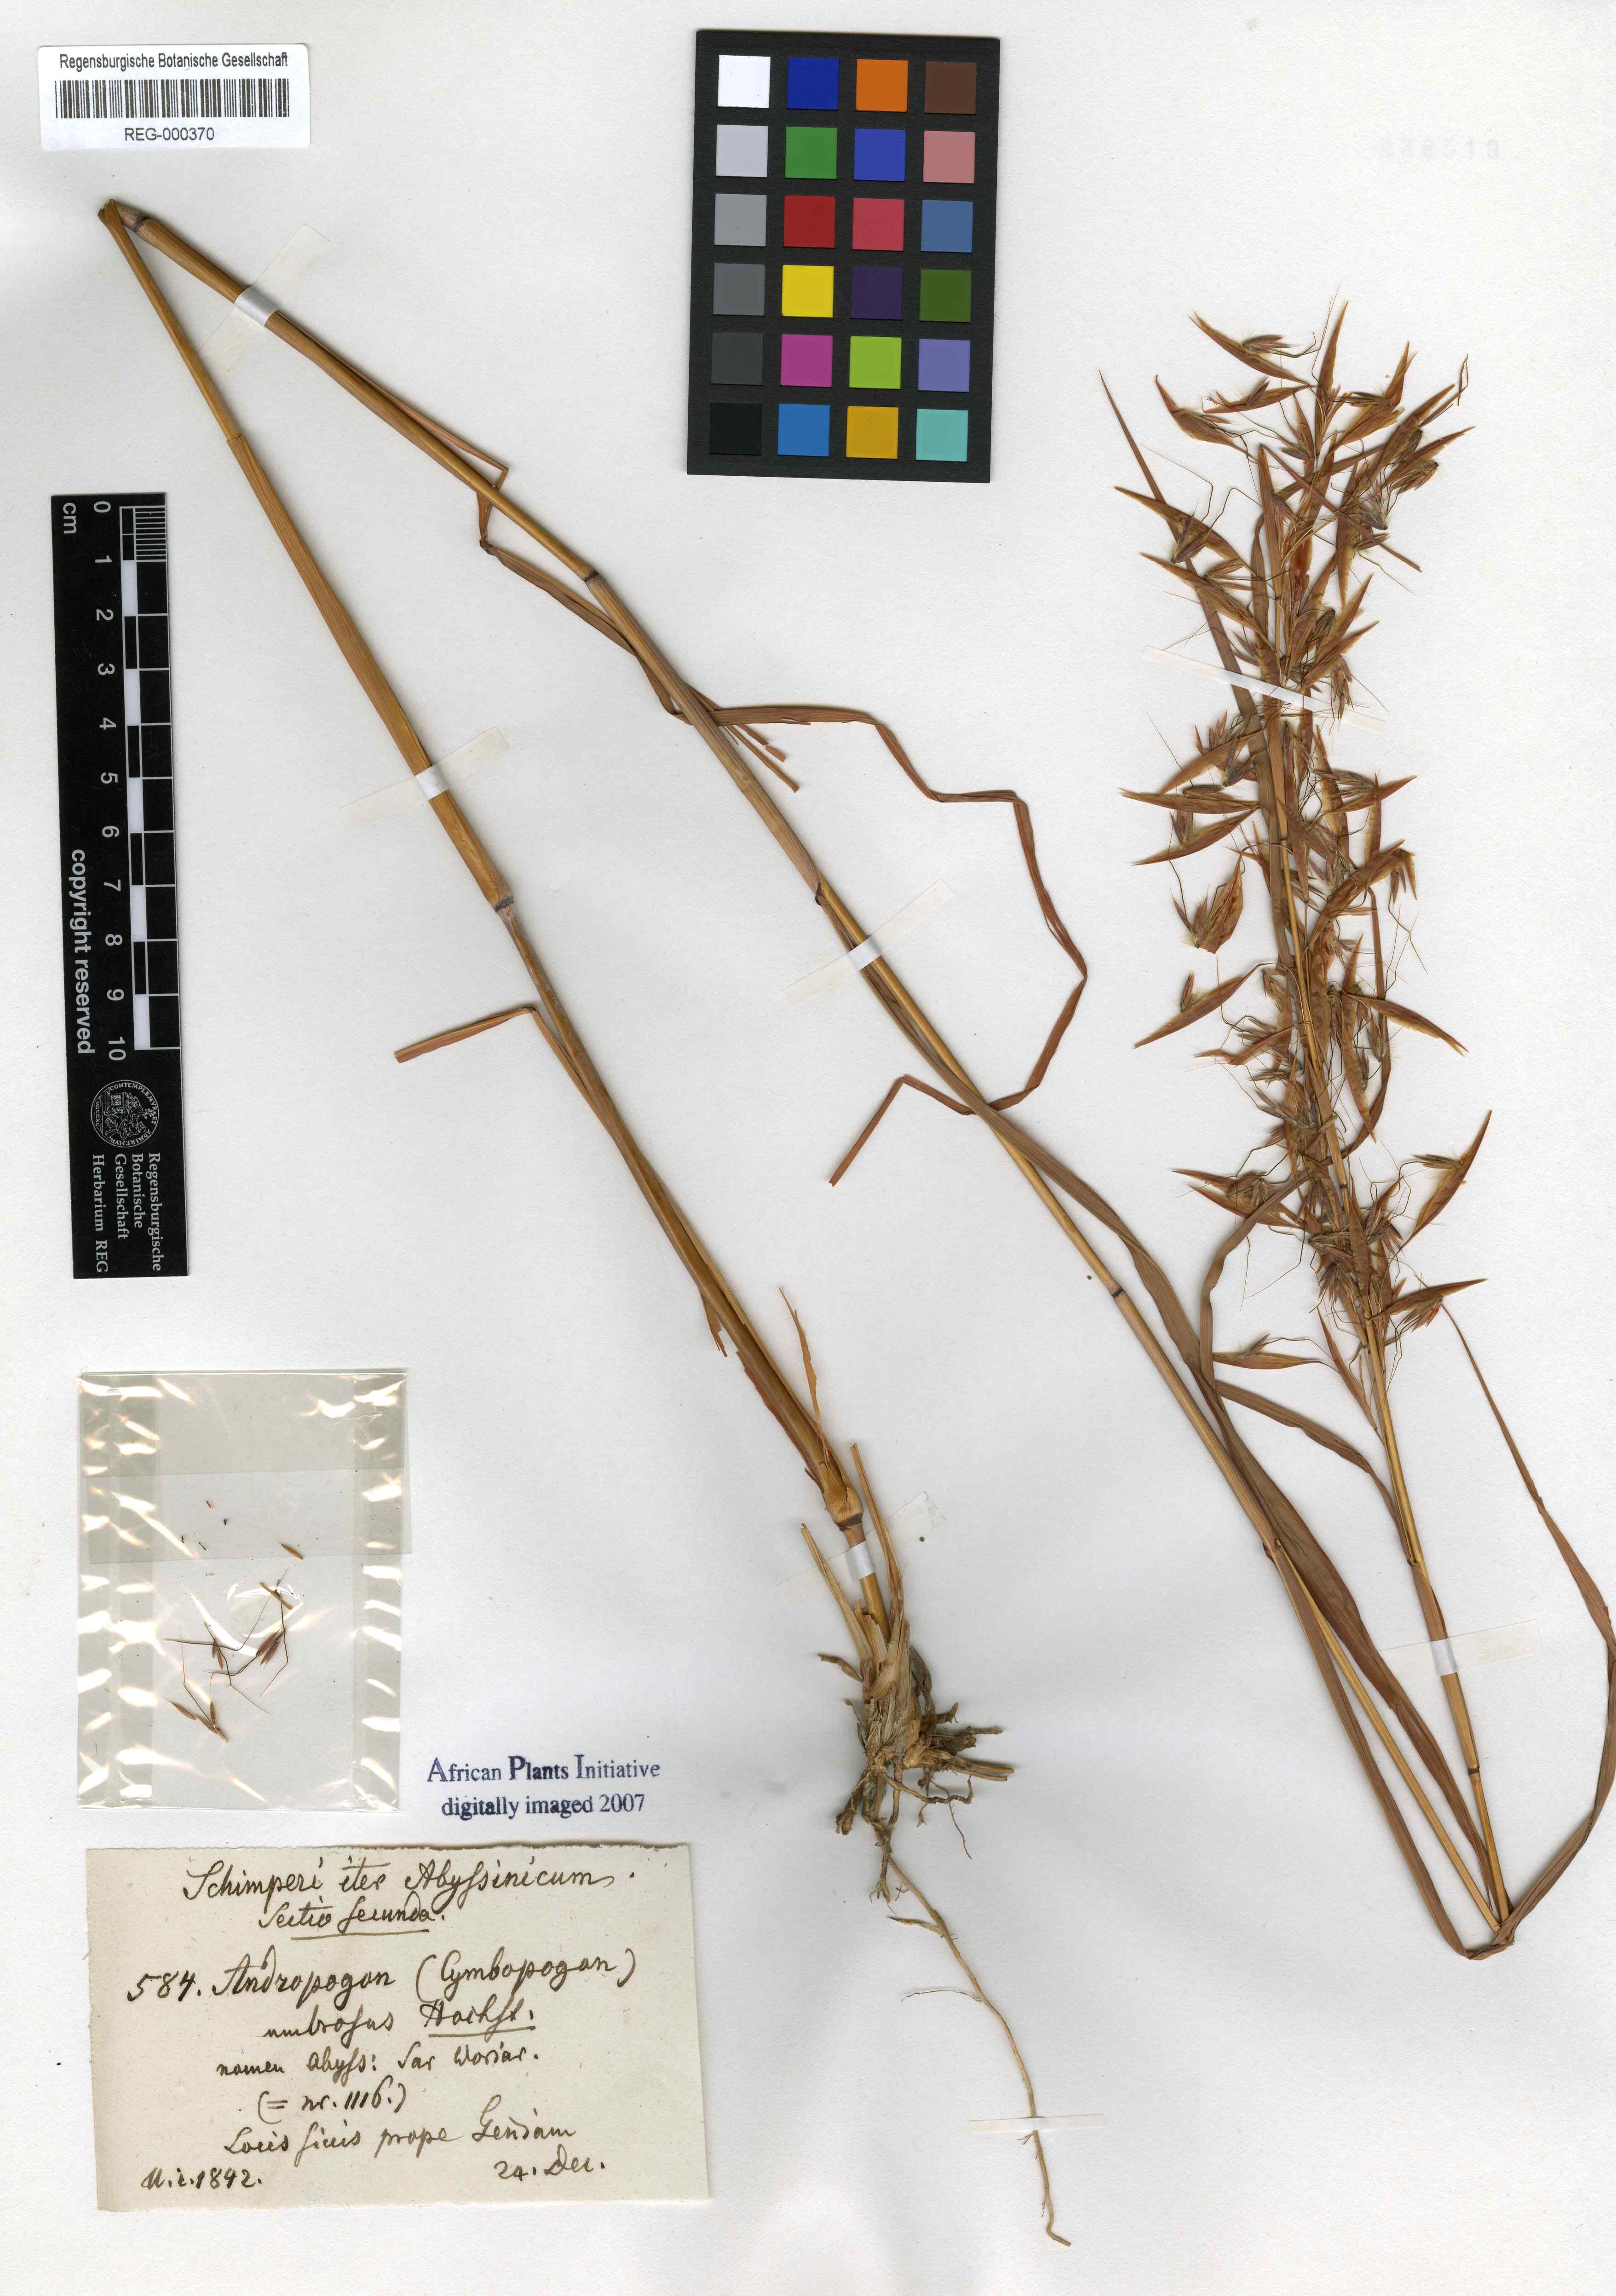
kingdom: Plantae
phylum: Tracheophyta
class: Liliopsida
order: Poales
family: Poaceae
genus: Andropogon
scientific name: Andropogon umbrosus
